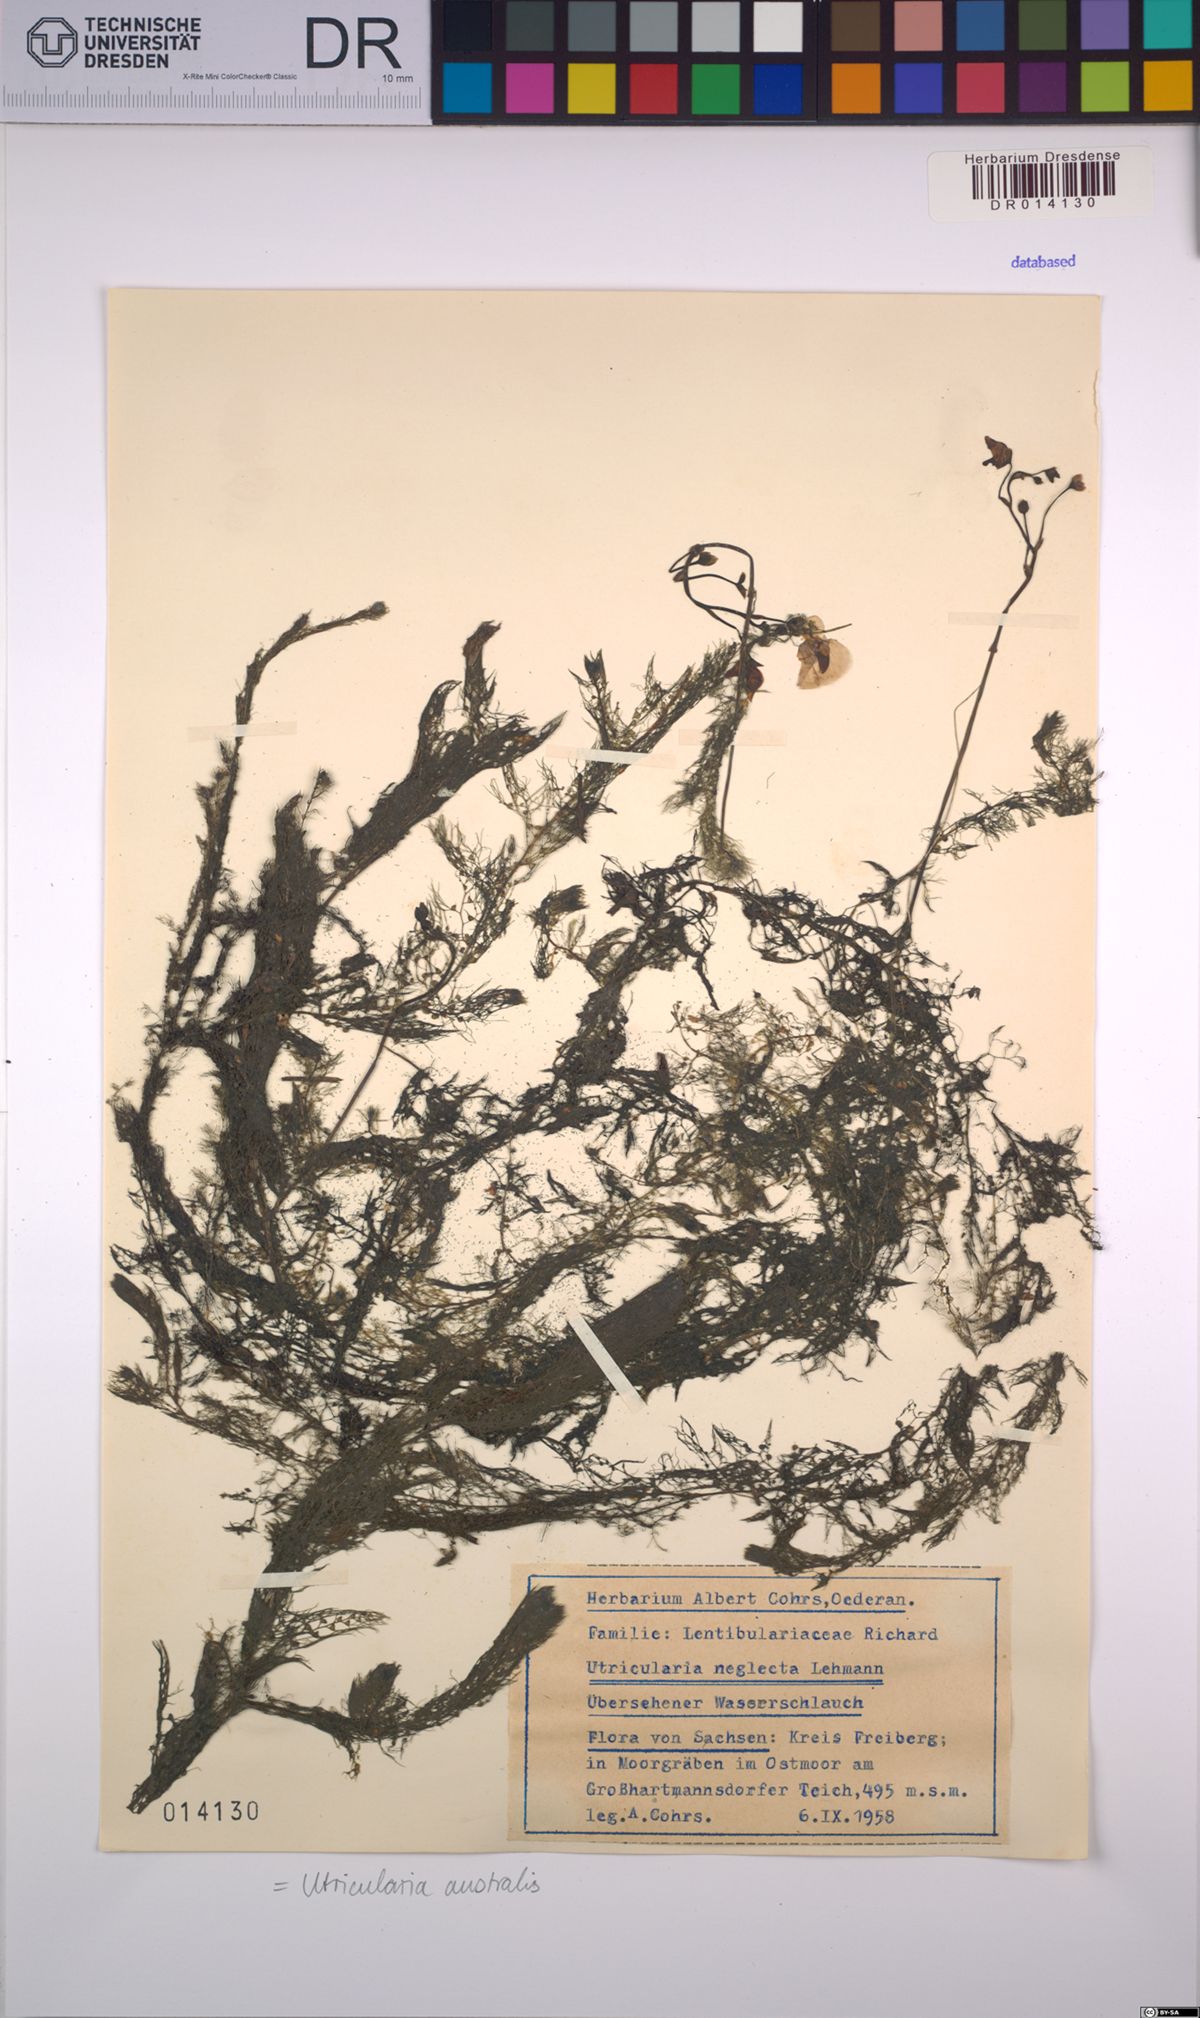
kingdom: Plantae
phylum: Tracheophyta
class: Magnoliopsida
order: Lamiales
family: Lentibulariaceae
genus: Utricularia
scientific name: Utricularia australis
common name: Bladderwort
